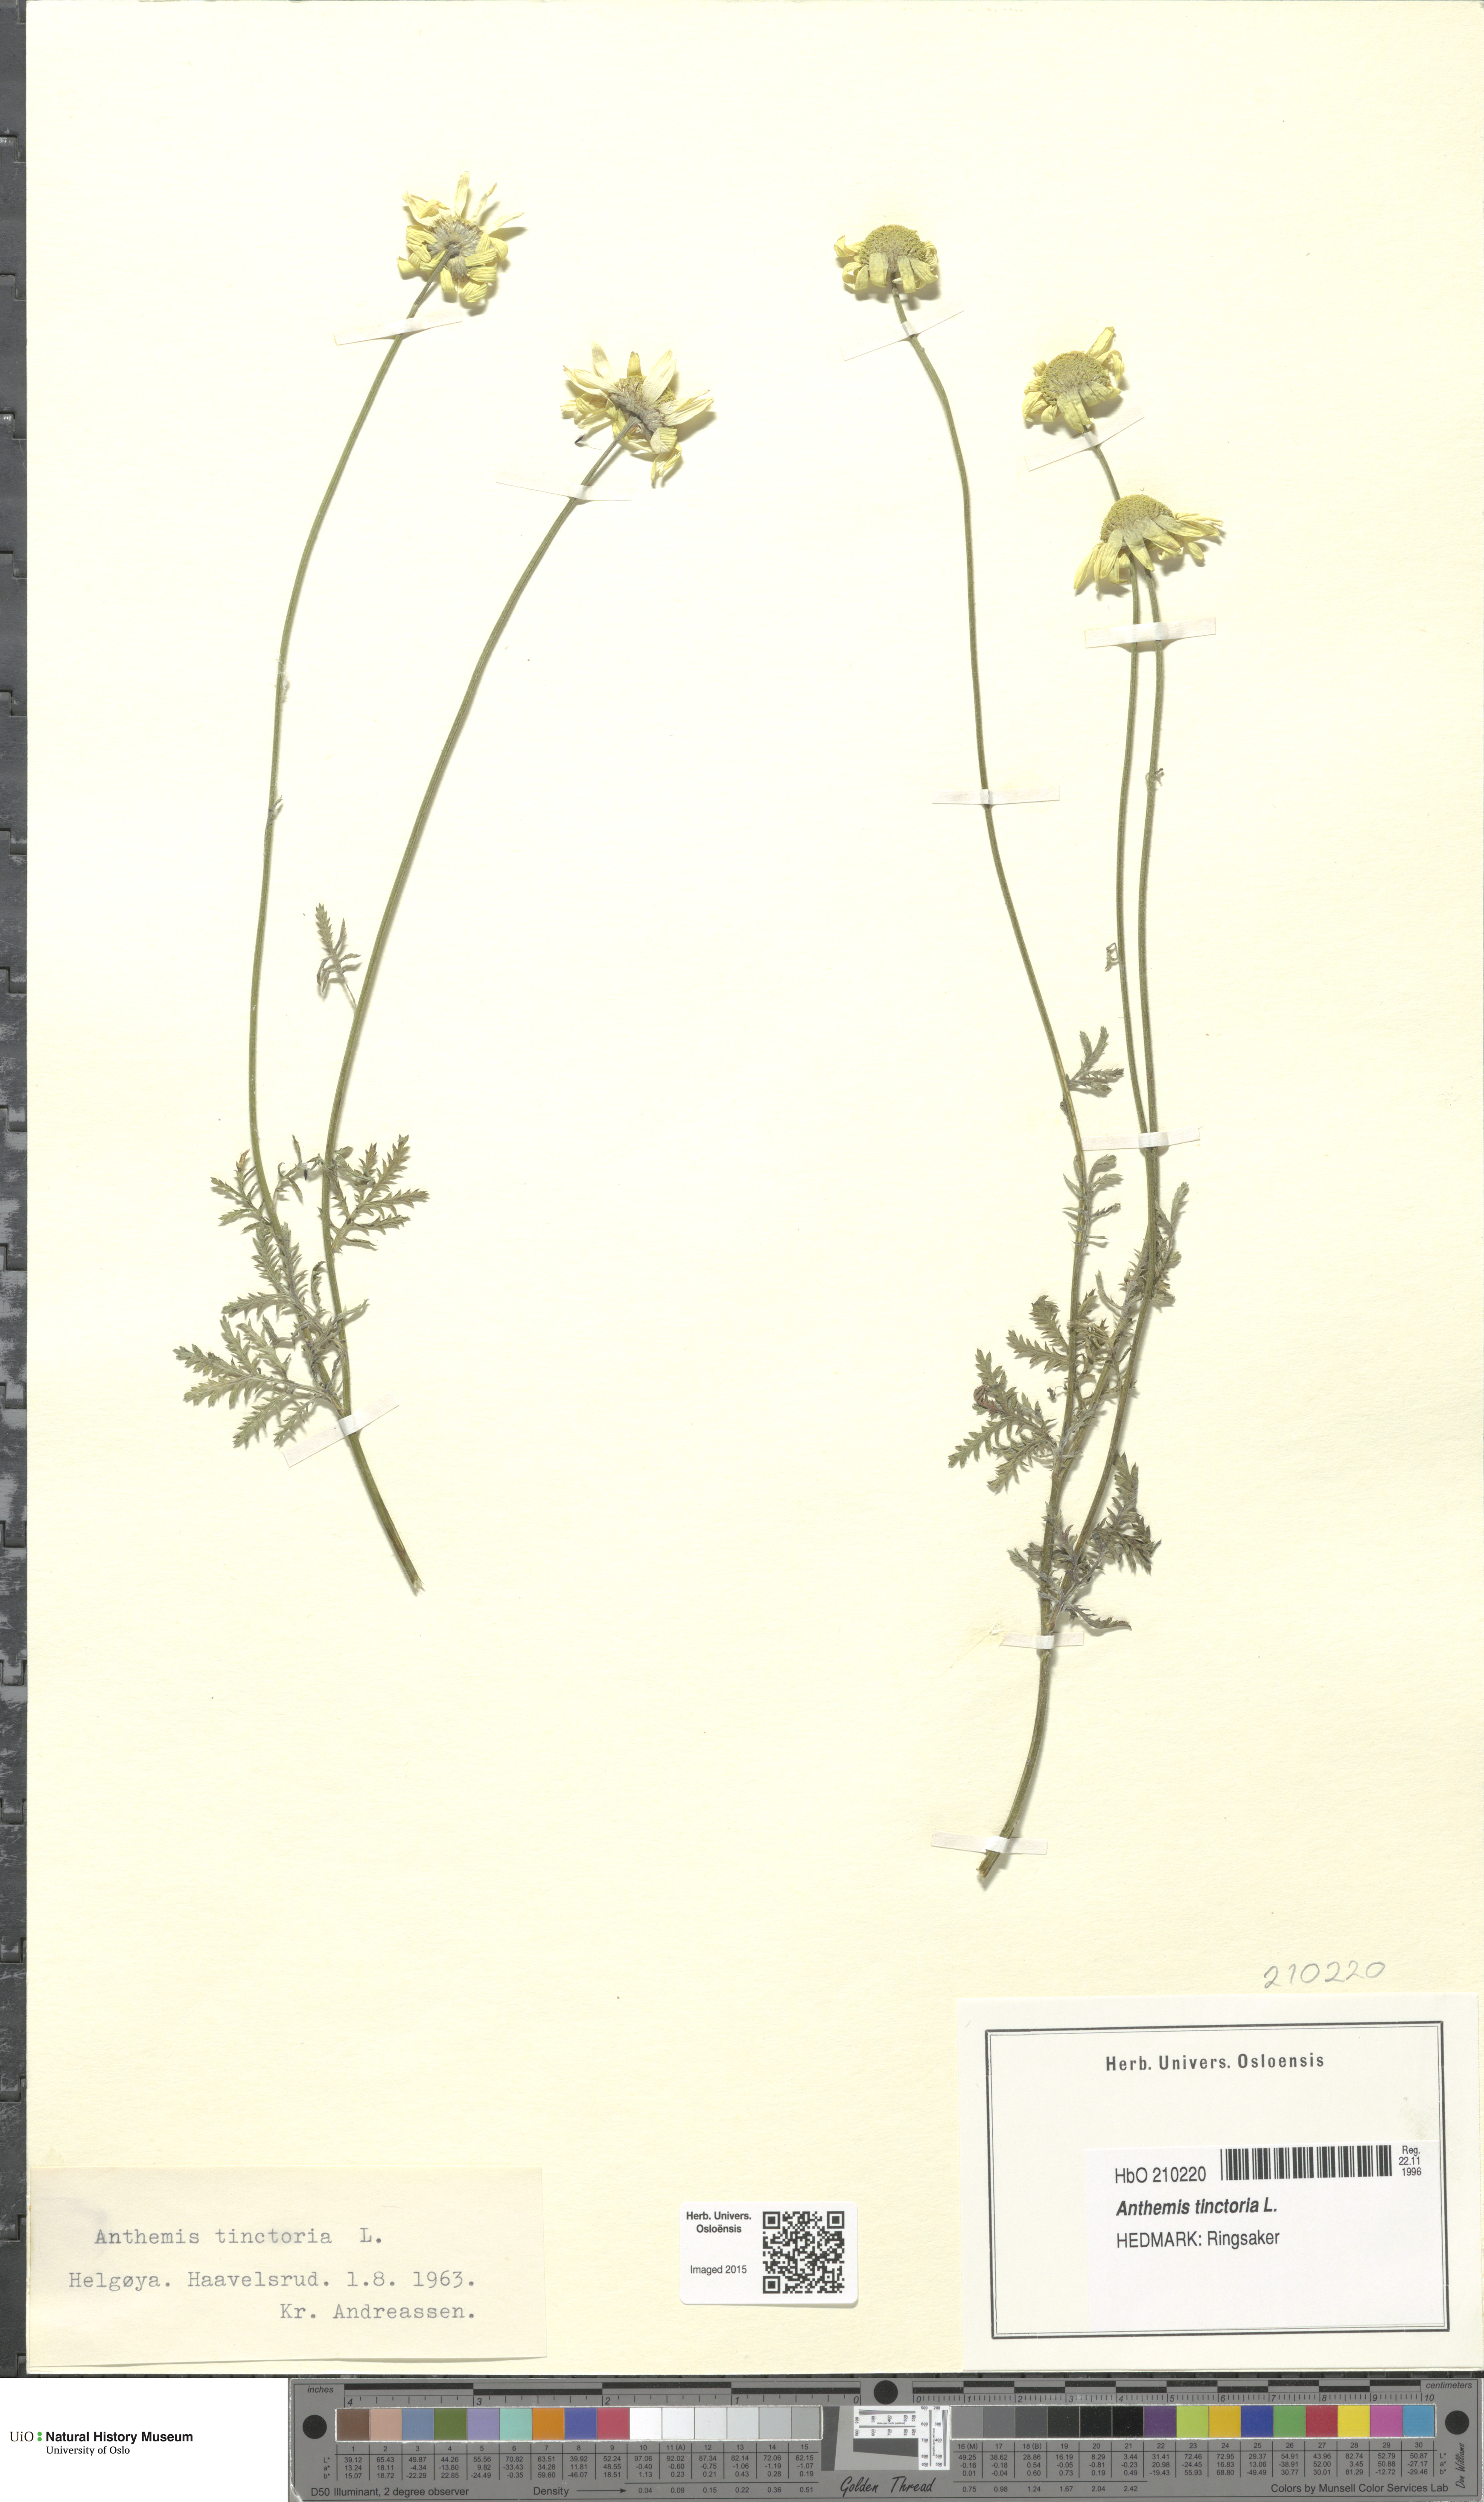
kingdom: Plantae
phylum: Tracheophyta
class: Magnoliopsida
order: Asterales
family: Asteraceae
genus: Cota
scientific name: Cota tinctoria
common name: Golden chamomile
